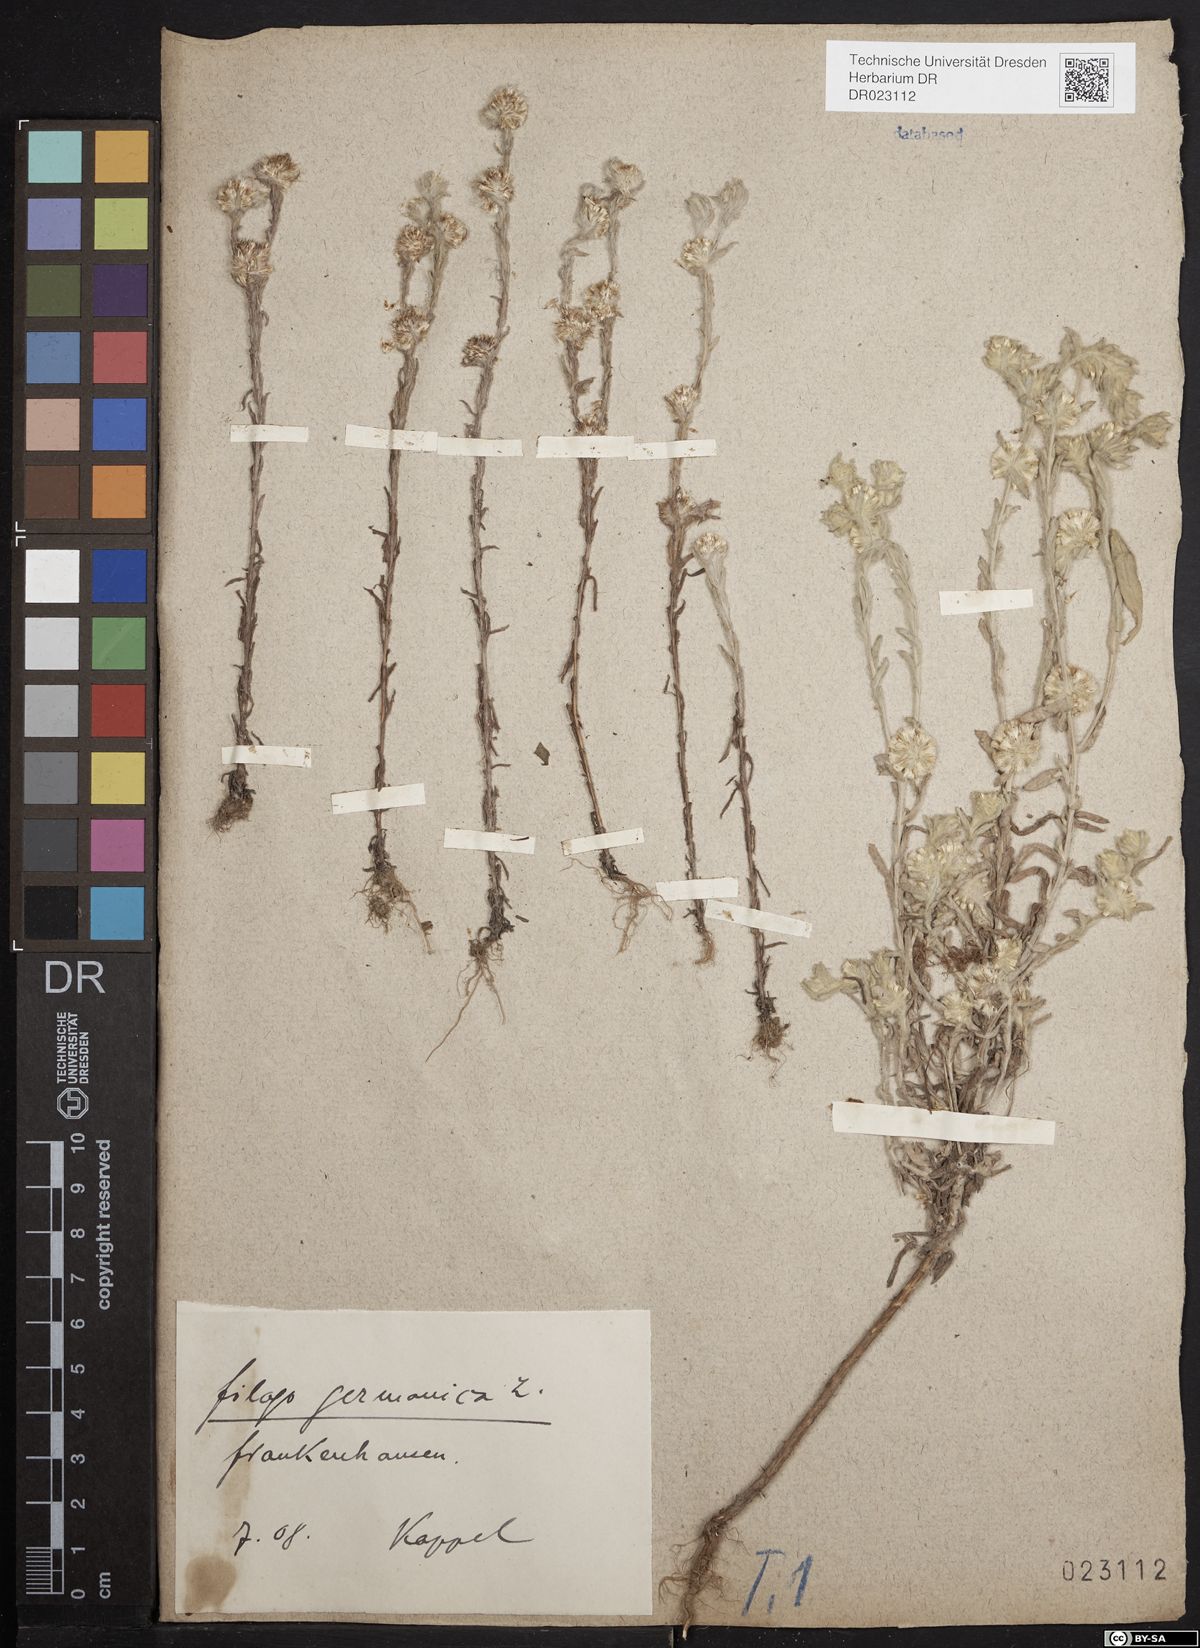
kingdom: Plantae
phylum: Tracheophyta
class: Magnoliopsida
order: Asterales
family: Asteraceae
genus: Filago
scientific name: Filago germanica
